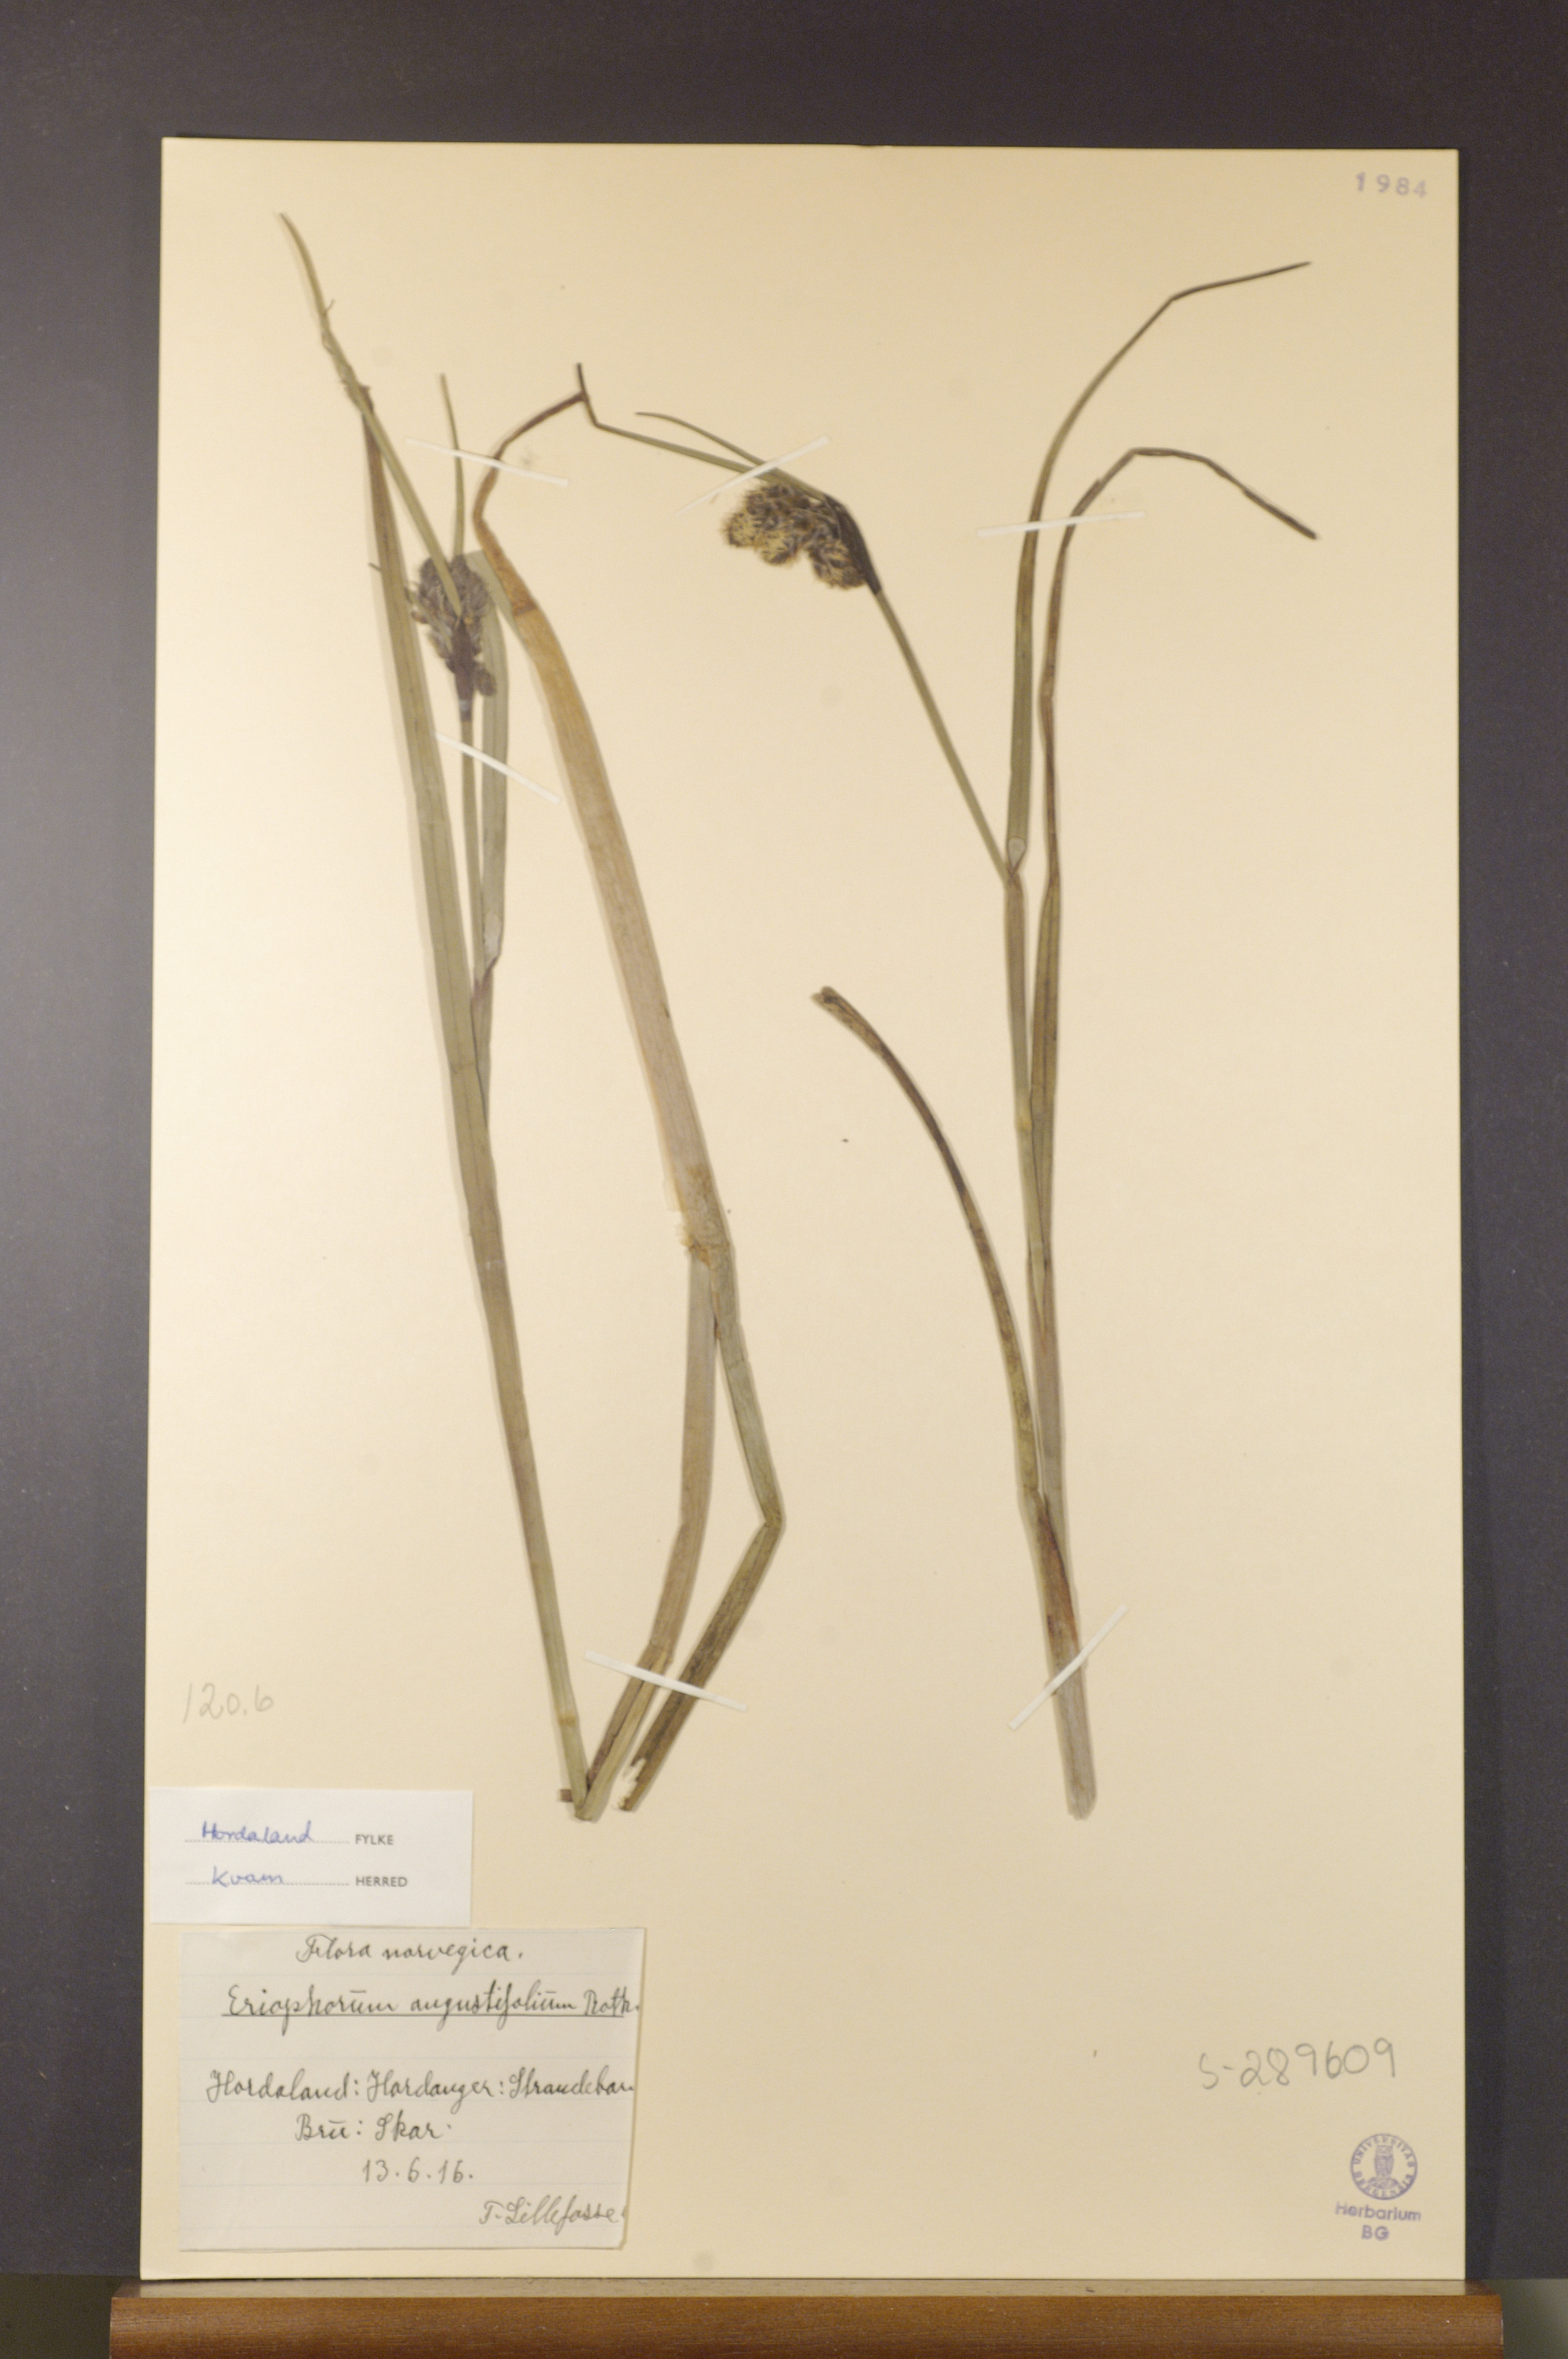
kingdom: Plantae
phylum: Tracheophyta
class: Liliopsida
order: Poales
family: Cyperaceae
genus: Eriophorum
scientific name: Eriophorum angustifolium
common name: Common cottongrass
